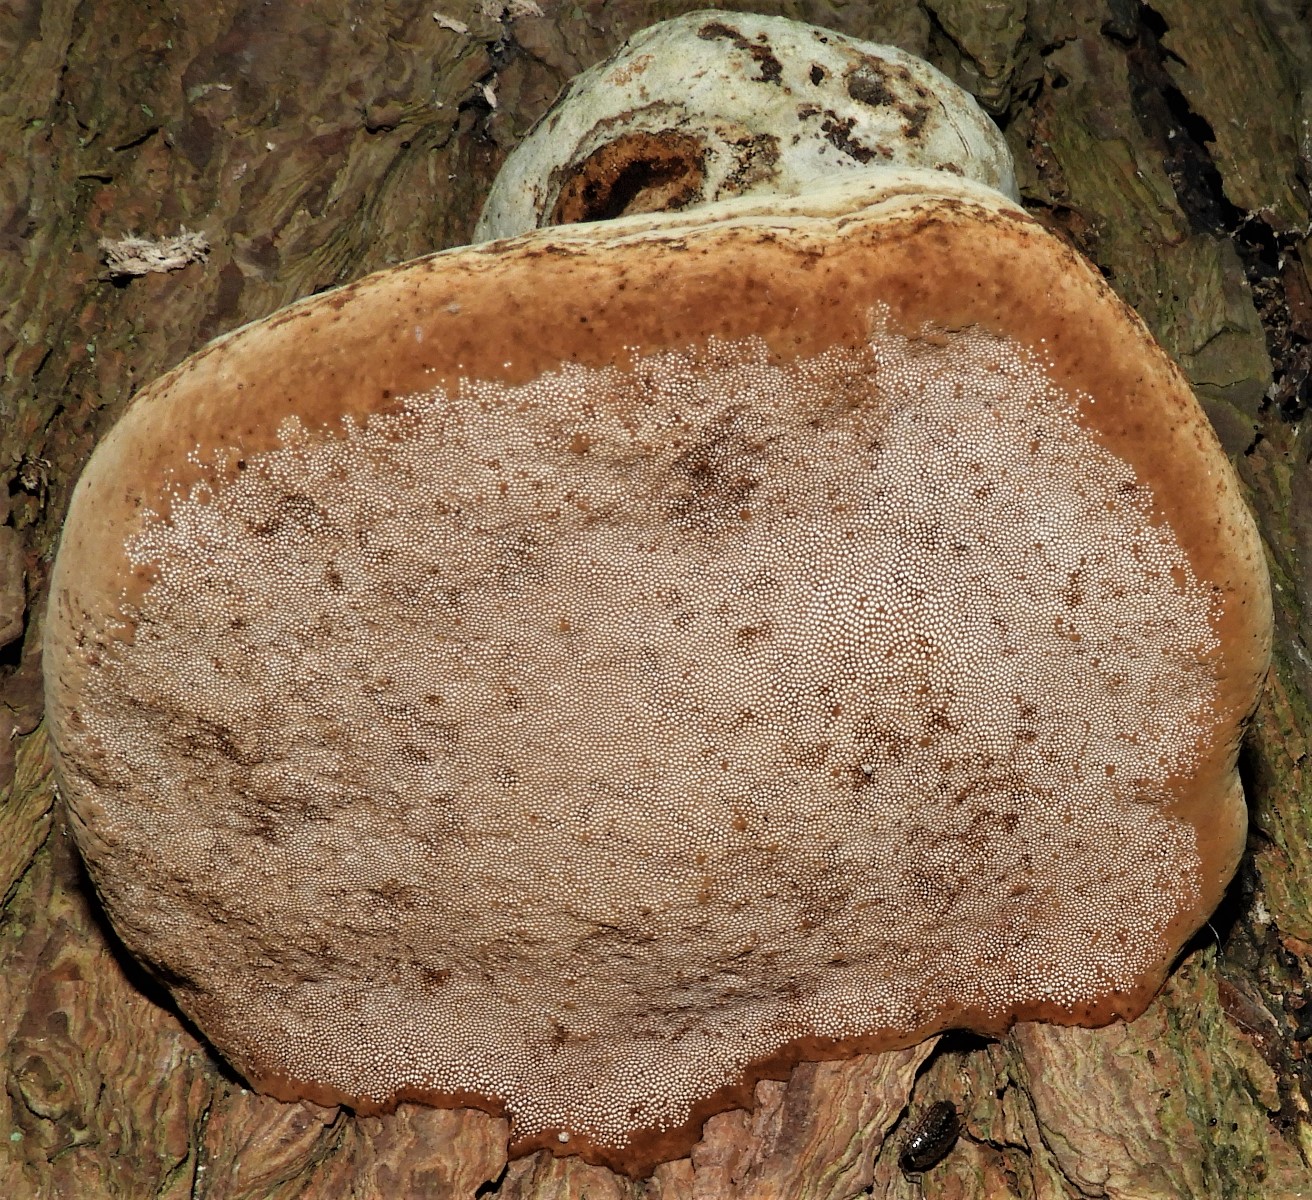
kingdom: Fungi
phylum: Basidiomycota
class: Agaricomycetes
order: Polyporales
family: Polyporaceae
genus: Fomes
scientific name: Fomes fomentarius
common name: tøndersvamp
